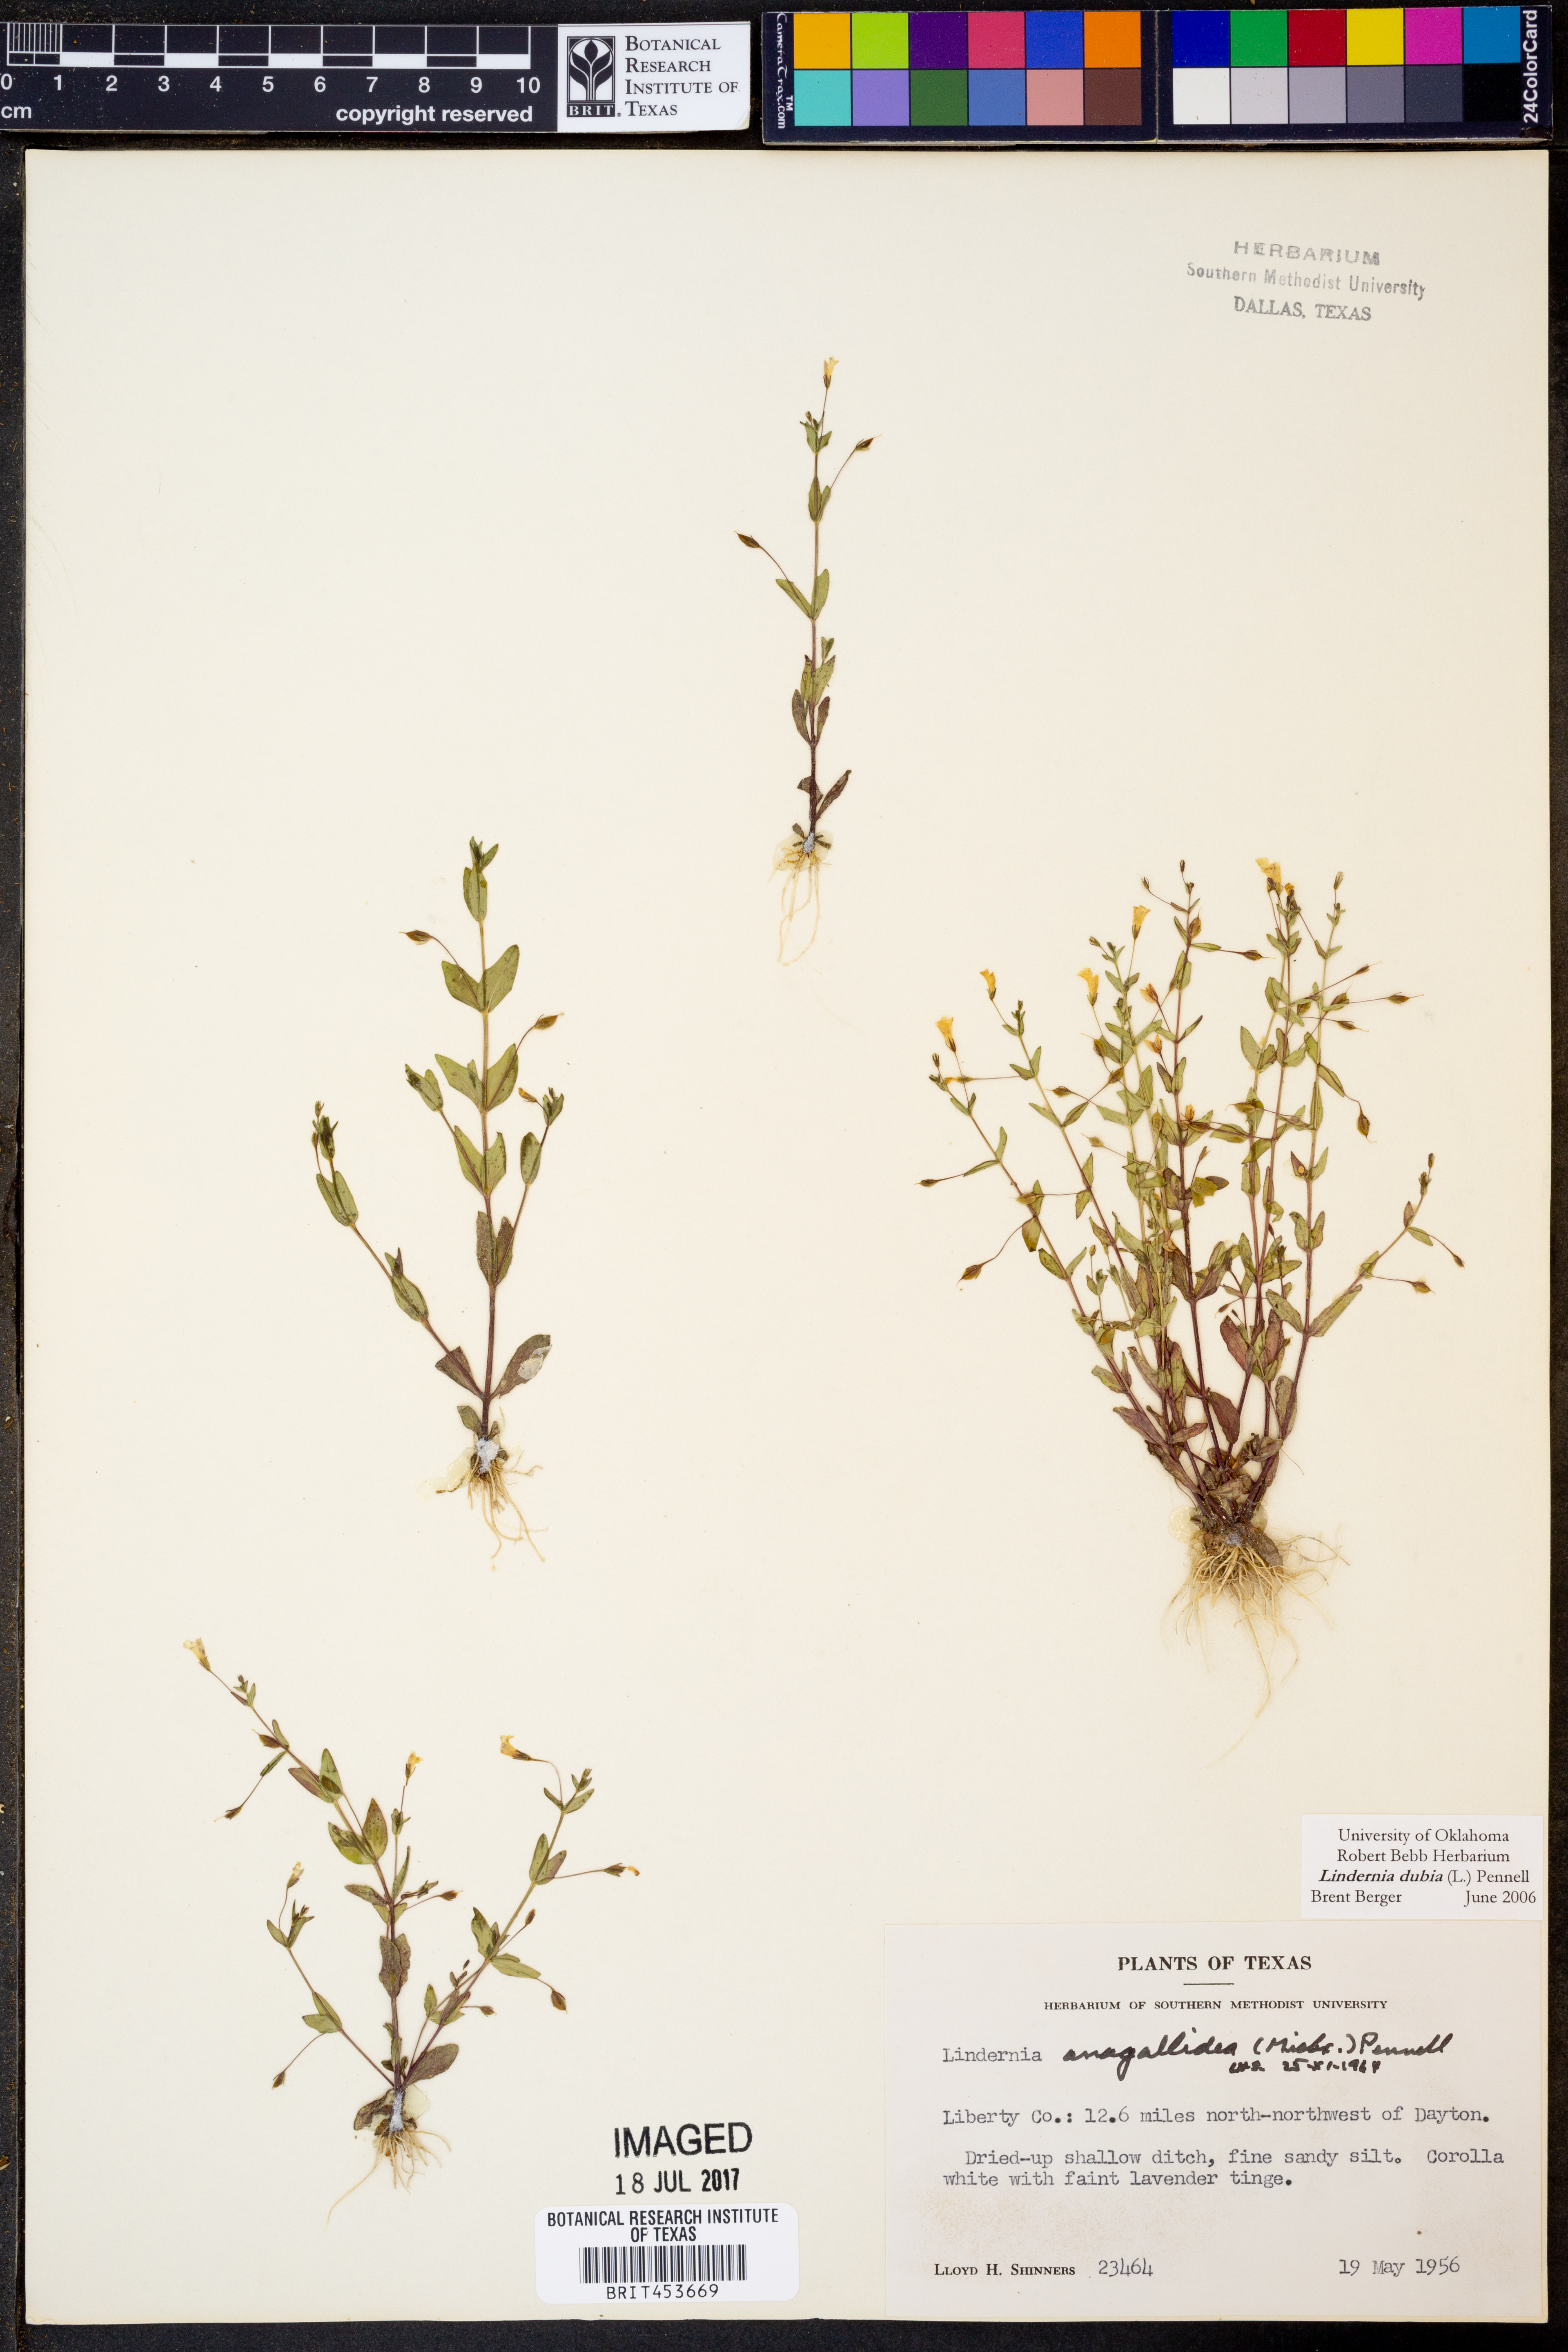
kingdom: Plantae
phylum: Tracheophyta
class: Magnoliopsida
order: Lamiales
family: Linderniaceae
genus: Lindernia
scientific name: Lindernia dubia
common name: Annual false pimpernel
